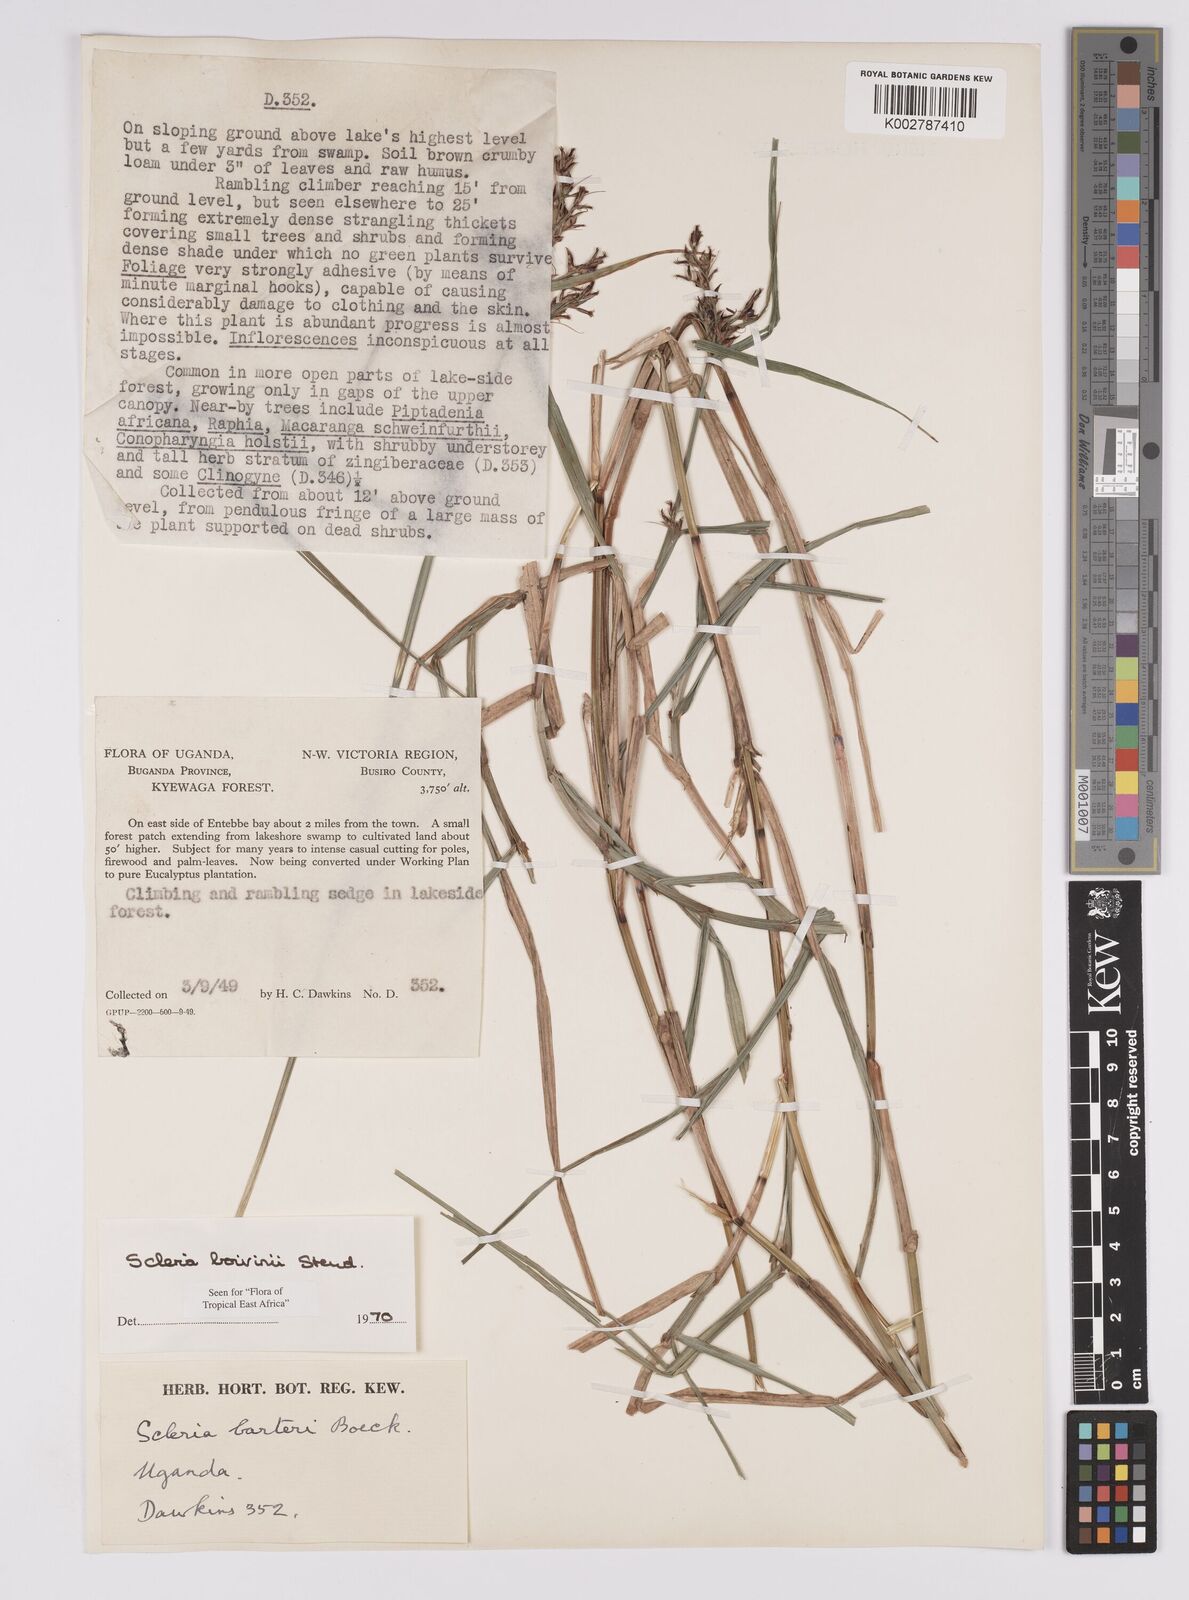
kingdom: Plantae
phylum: Tracheophyta
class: Liliopsida
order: Poales
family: Cyperaceae
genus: Scleria
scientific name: Scleria boivinii
